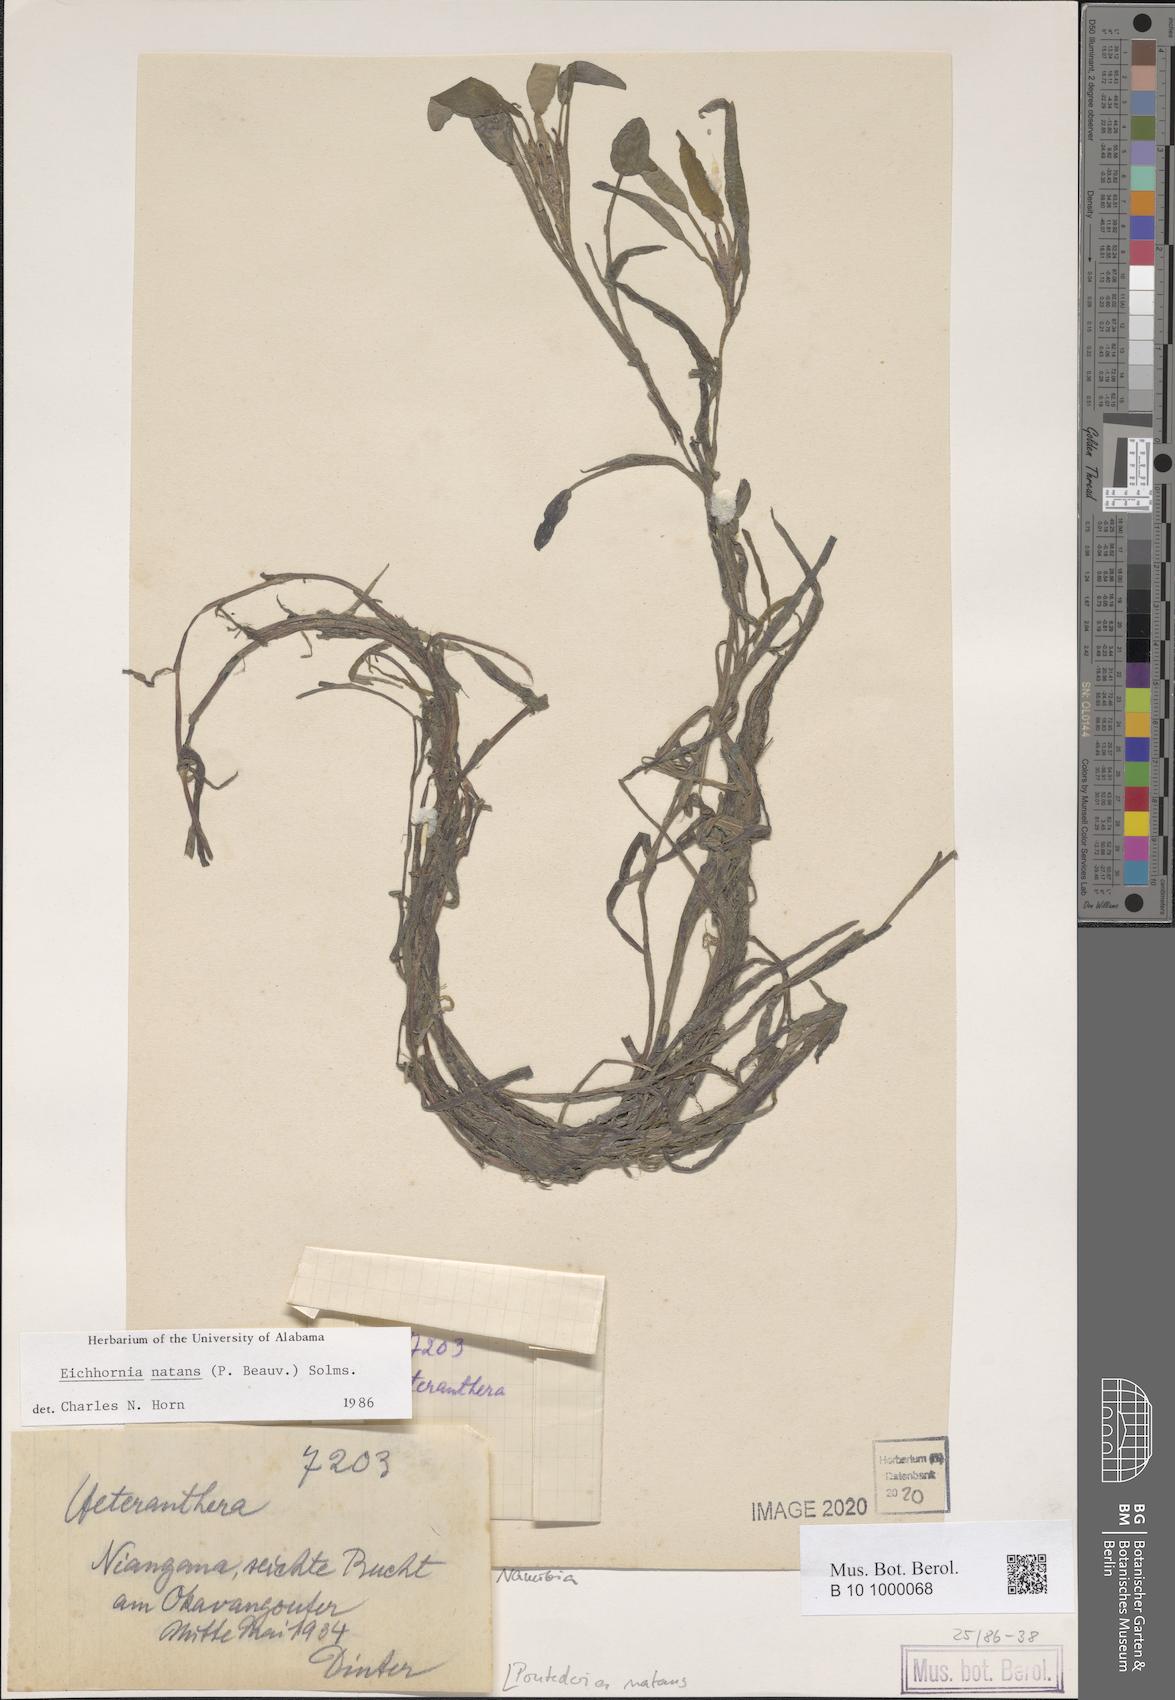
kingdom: Plantae
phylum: Tracheophyta
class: Liliopsida
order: Commelinales
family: Pontederiaceae
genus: Pontederia
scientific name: Pontederia natans
